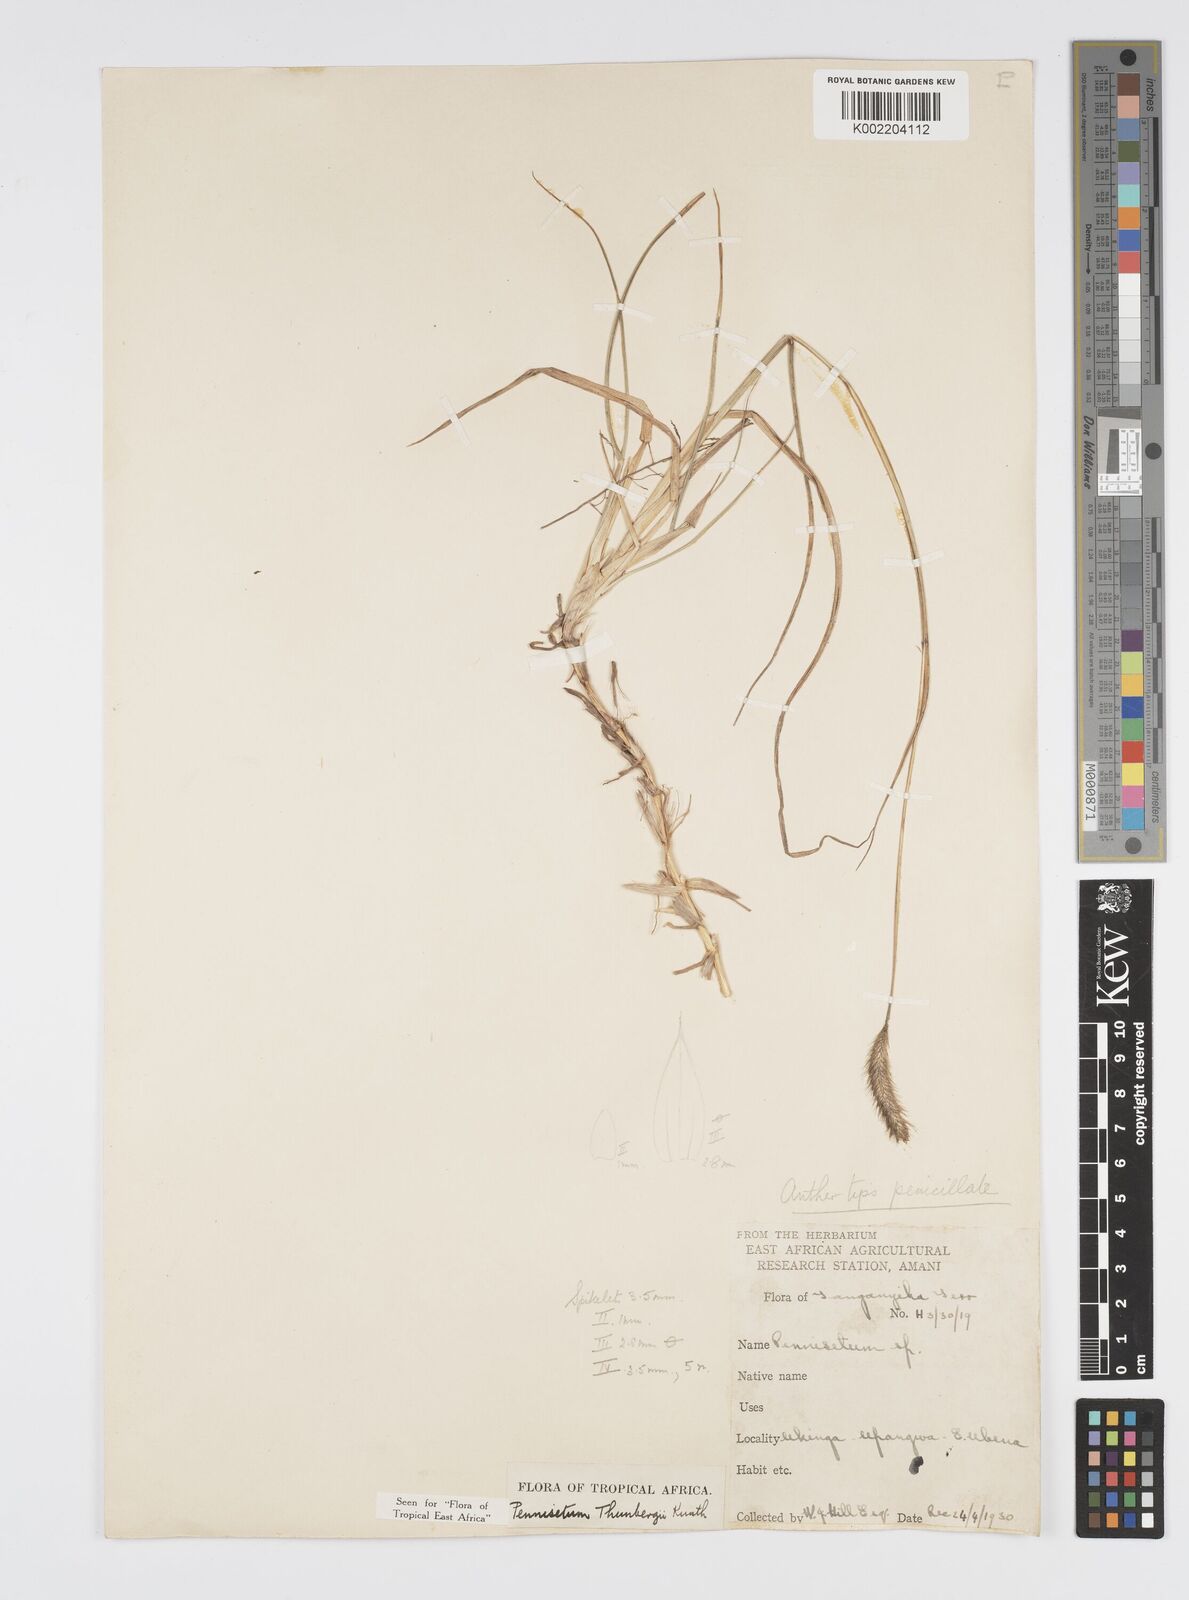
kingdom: Plantae
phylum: Tracheophyta
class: Liliopsida
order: Poales
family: Poaceae
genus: Cenchrus
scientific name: Cenchrus geniculatus
